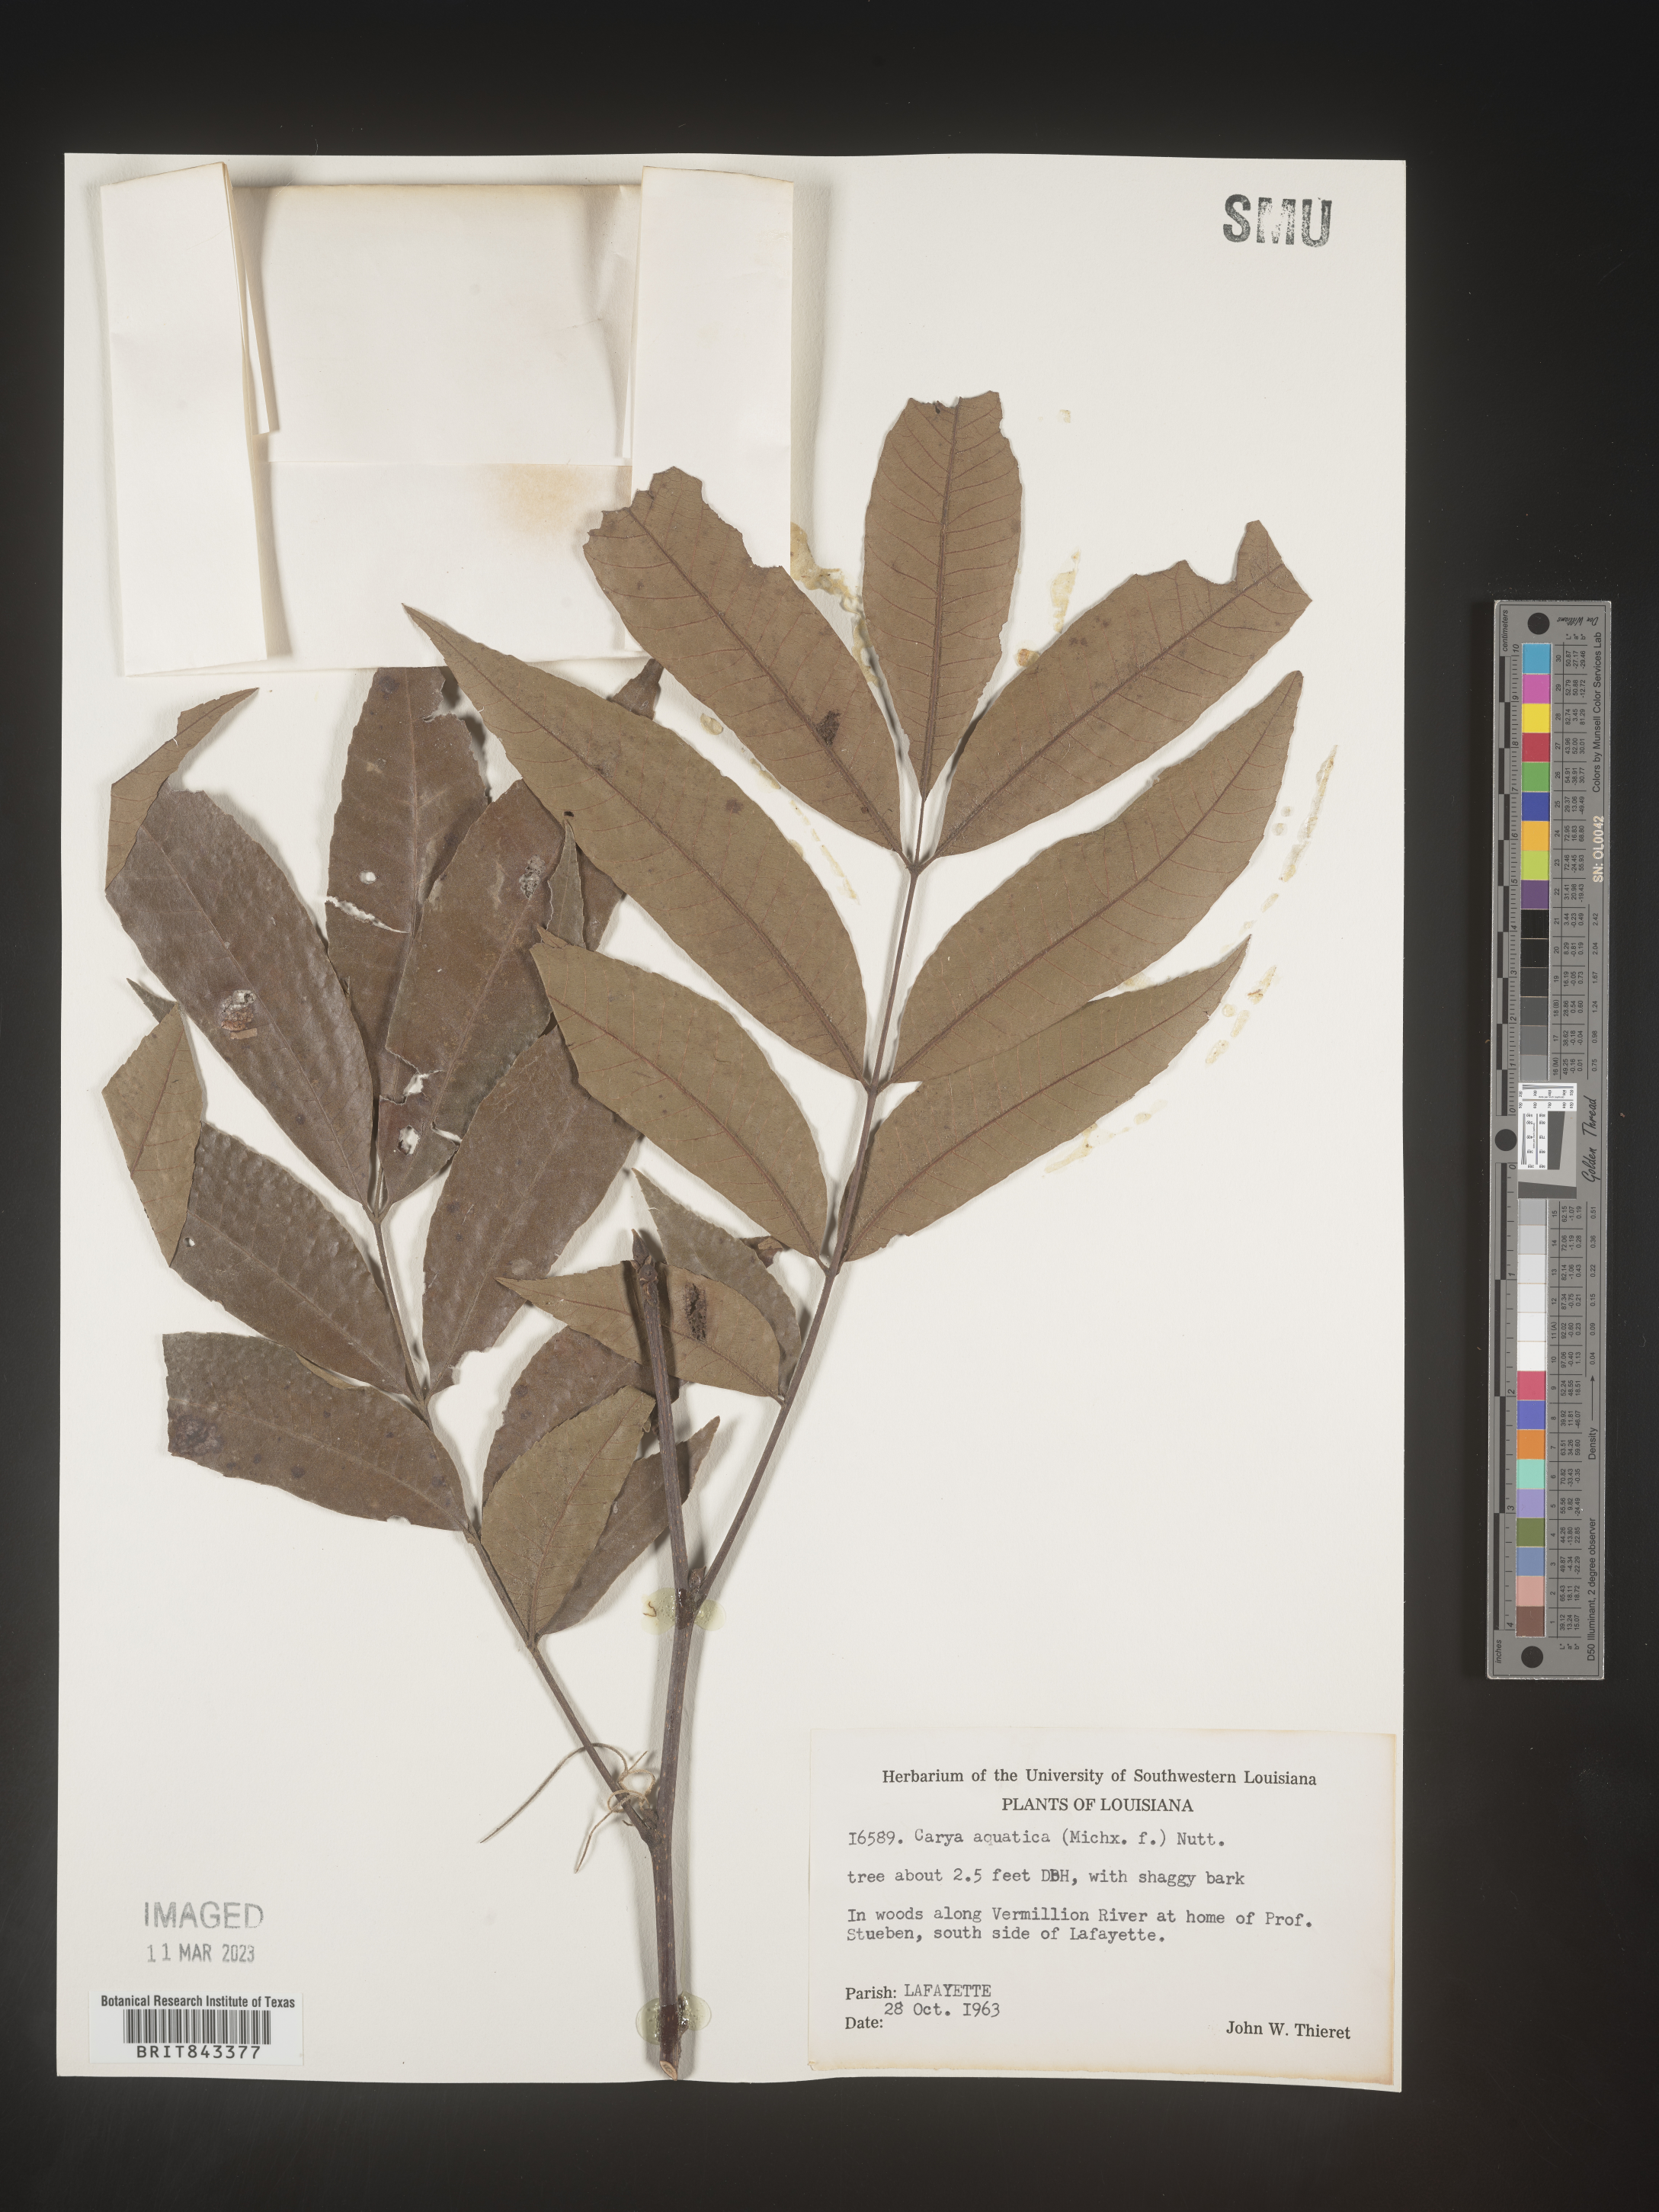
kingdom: Plantae
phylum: Tracheophyta
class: Magnoliopsida
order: Fagales
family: Juglandaceae
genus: Carya
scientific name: Carya aquatica
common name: Water hickory
